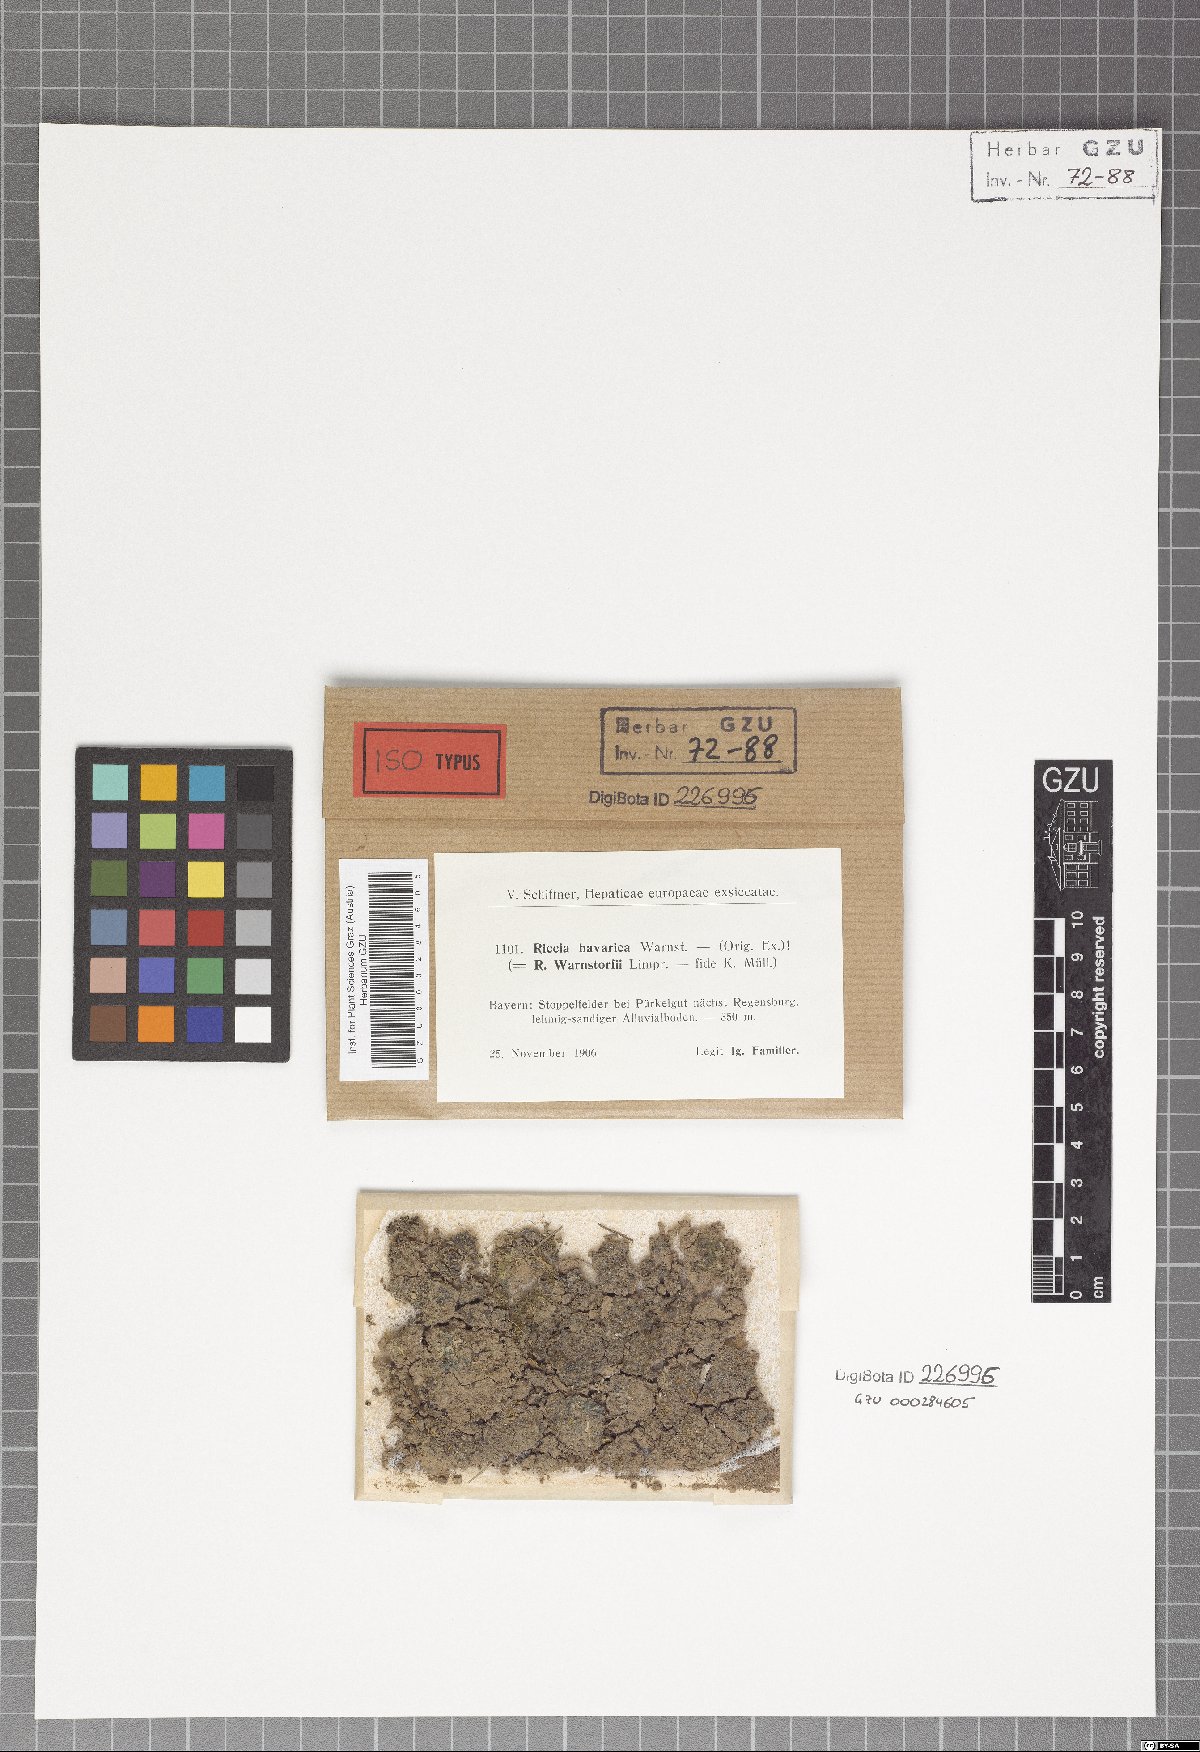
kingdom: Plantae
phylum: Marchantiophyta
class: Marchantiopsida
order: Marchantiales
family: Ricciaceae
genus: Riccia
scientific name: Riccia warnstorfii
